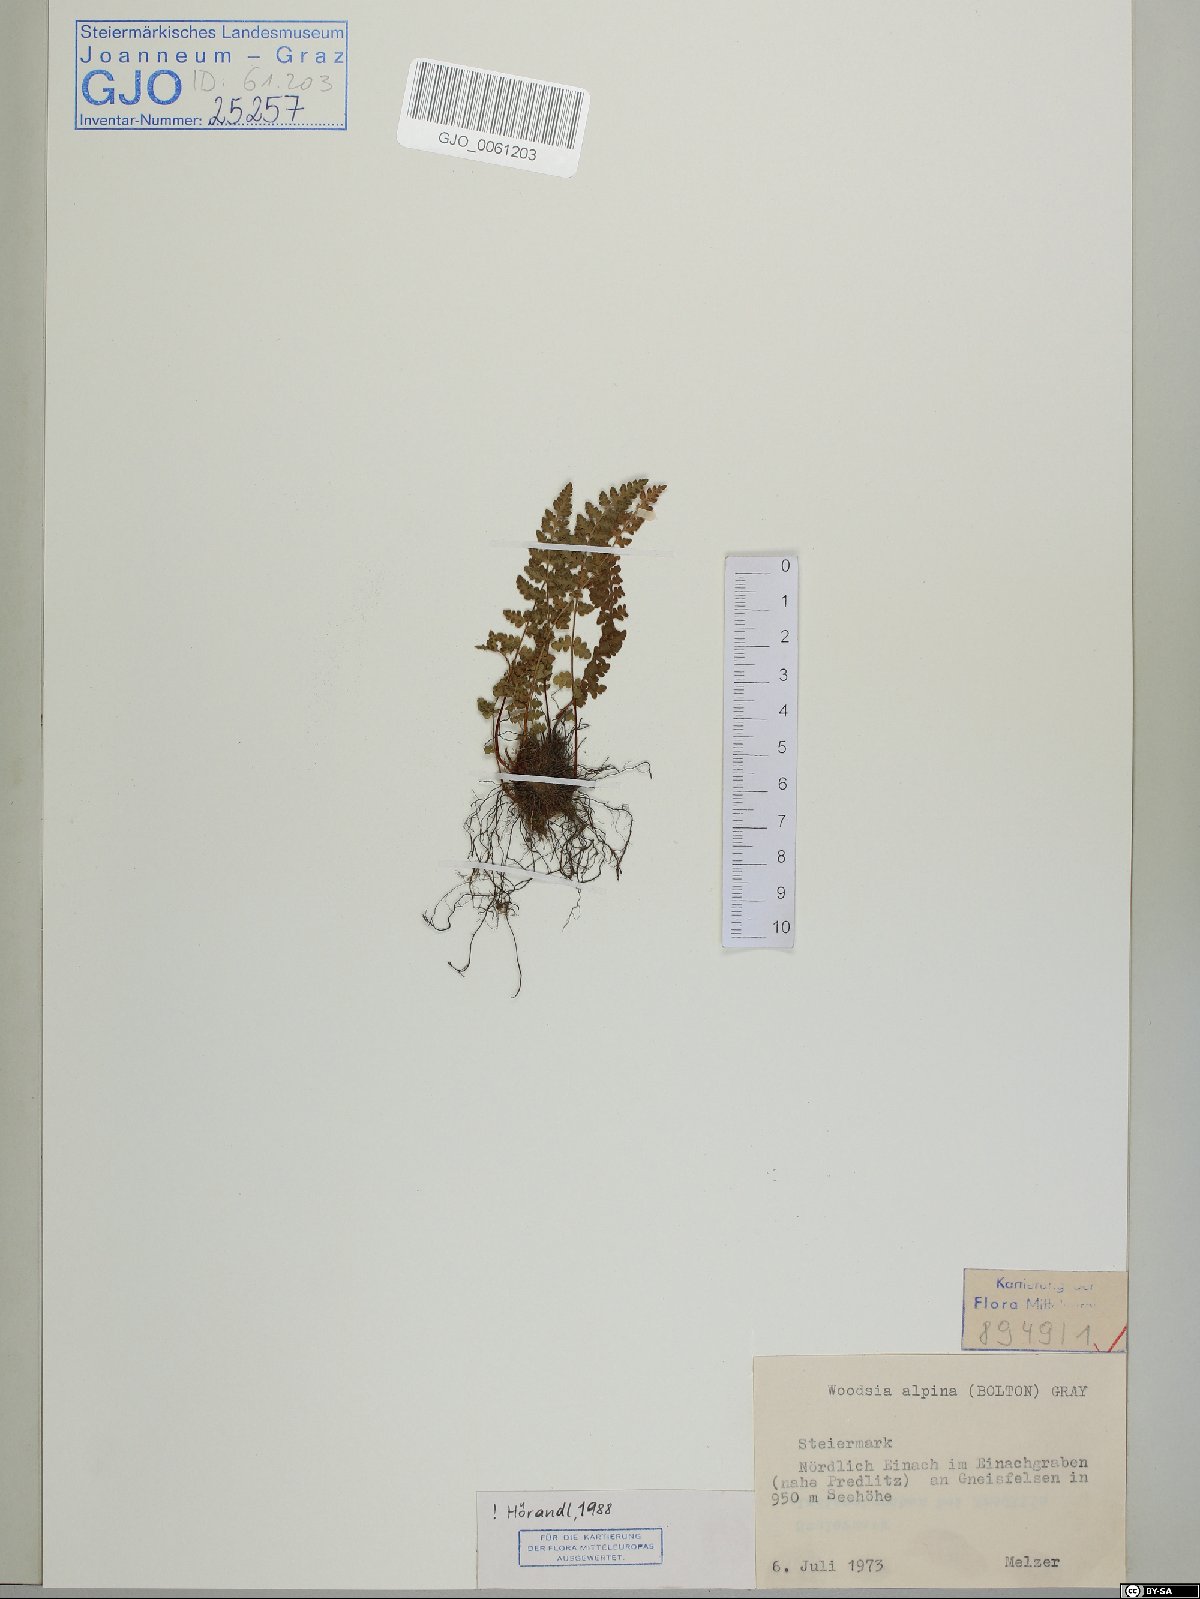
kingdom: Plantae
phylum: Tracheophyta
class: Polypodiopsida
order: Polypodiales
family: Woodsiaceae
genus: Woodsia
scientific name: Woodsia alpina
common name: Alpine woodsia
